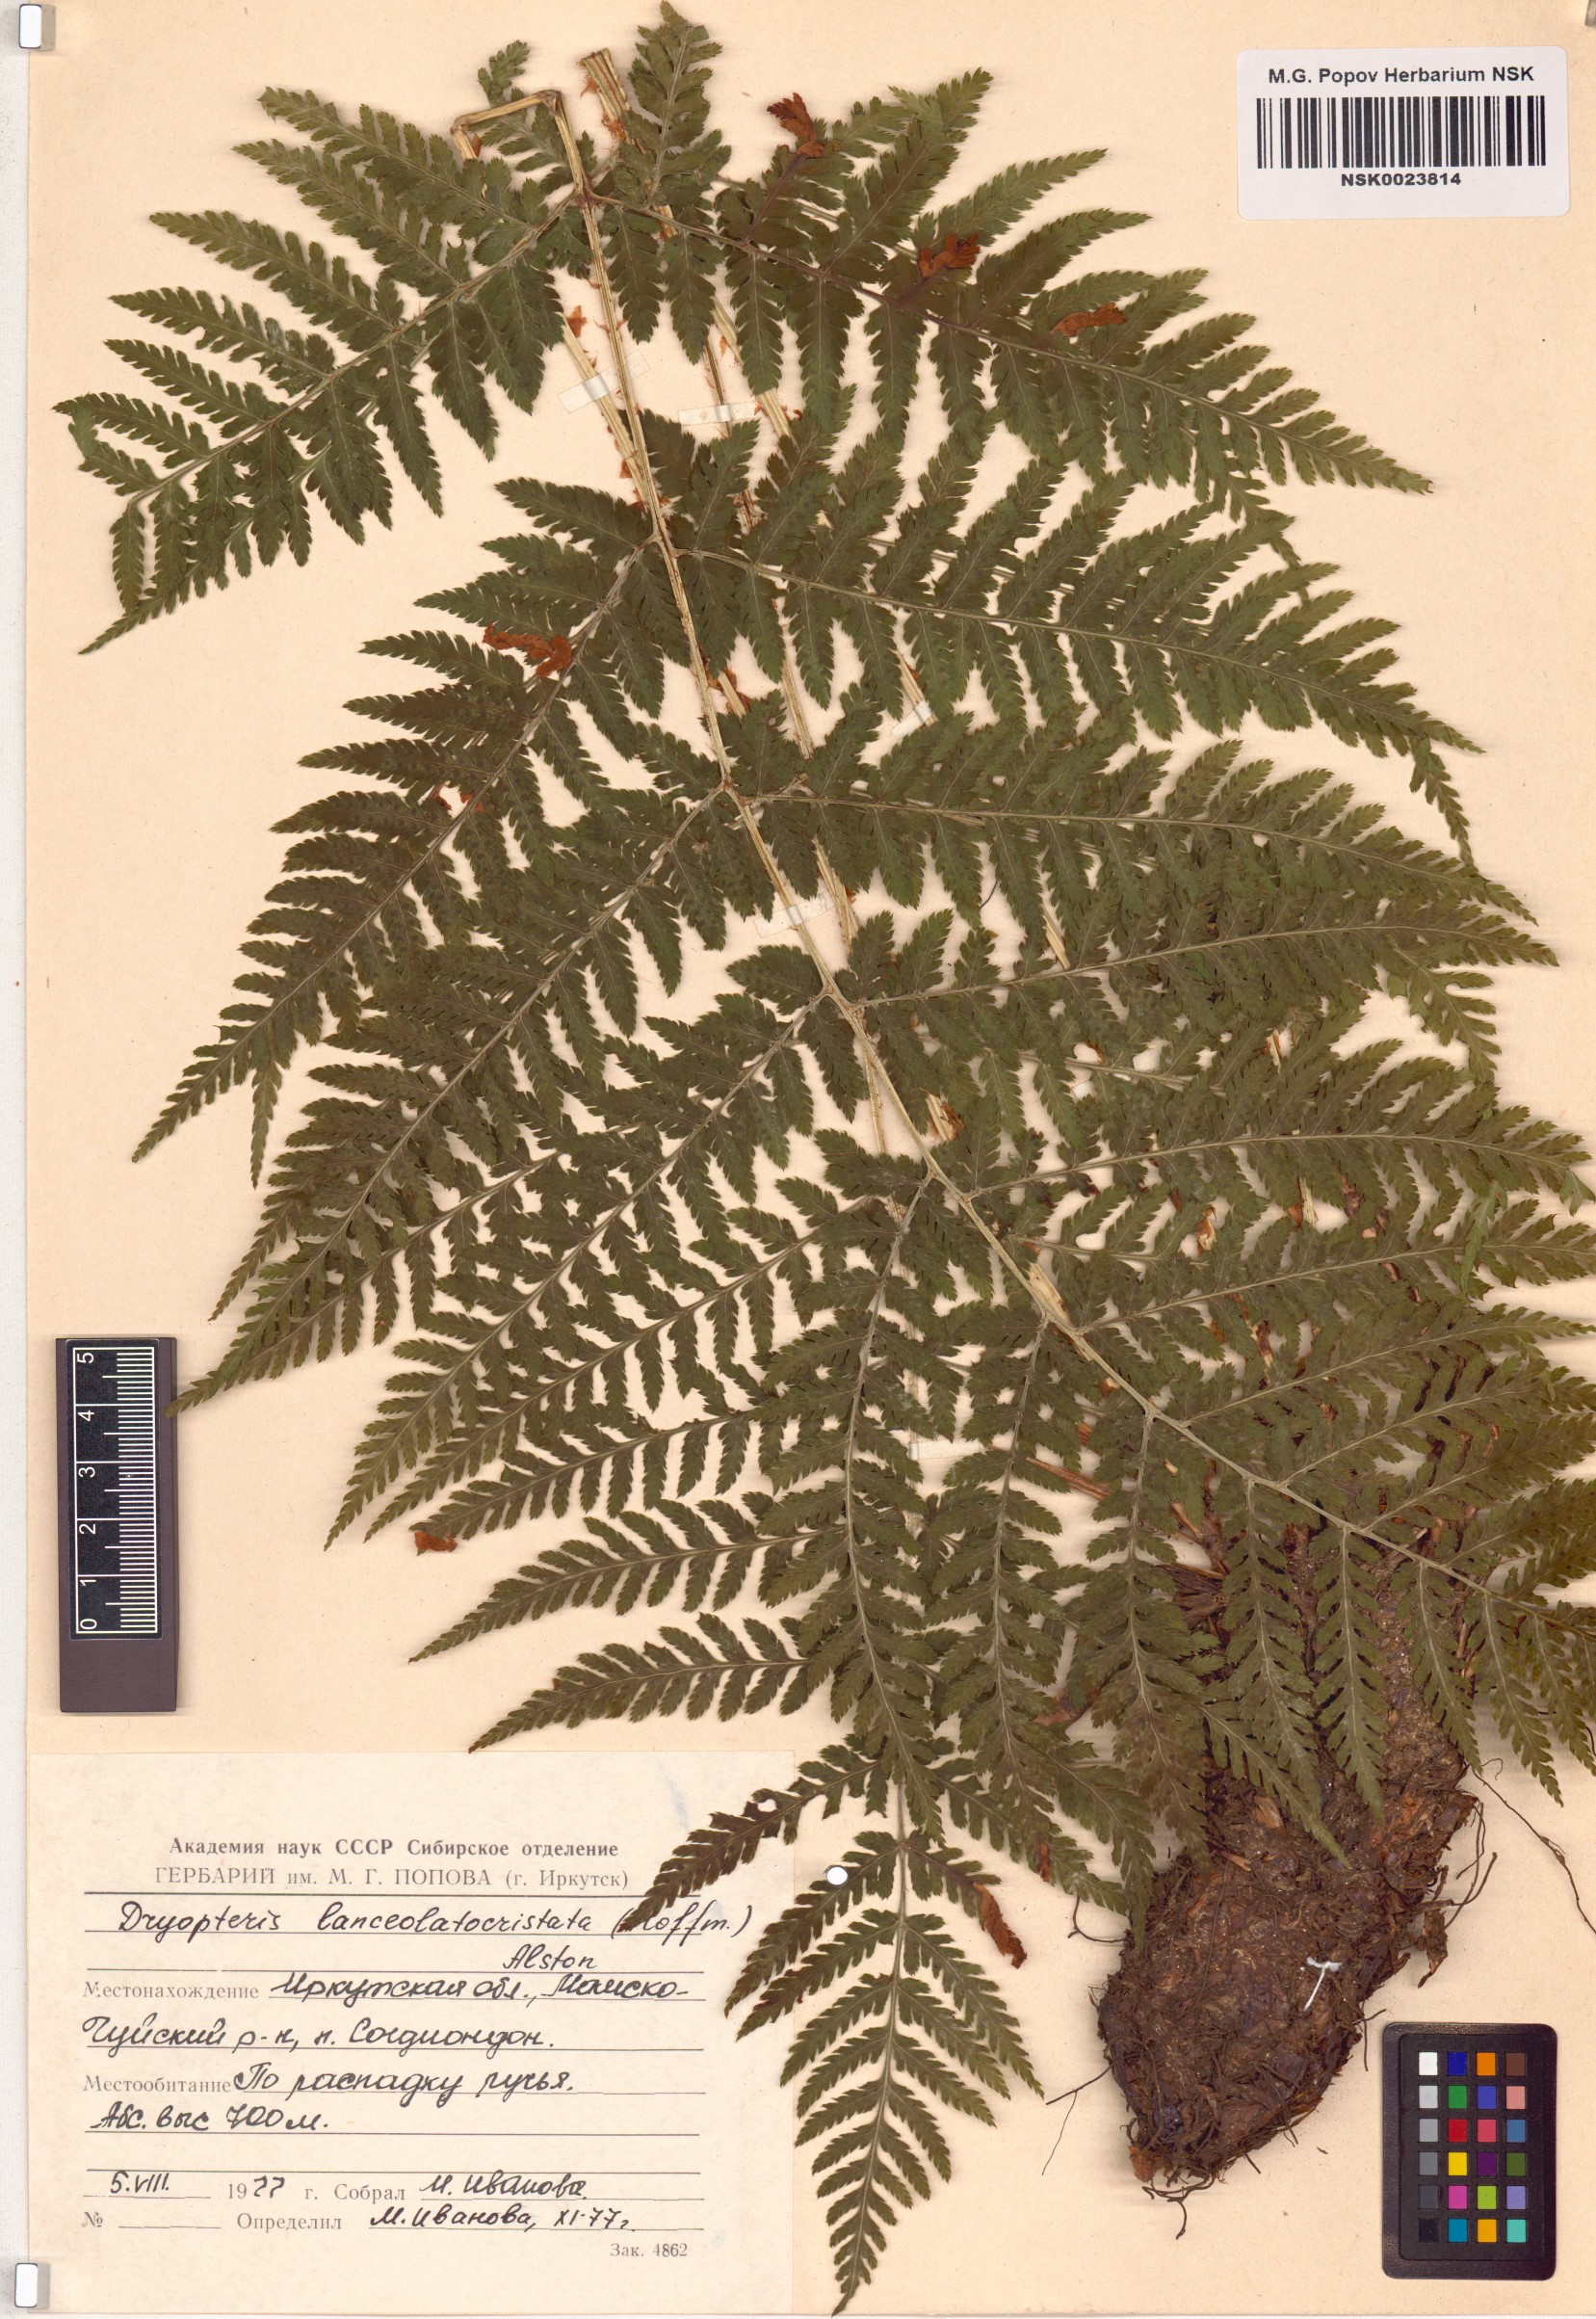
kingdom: Plantae
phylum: Tracheophyta
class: Polypodiopsida
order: Polypodiales
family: Dryopteridaceae
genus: Dryopteris
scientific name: Dryopteris carthusiana
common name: Narrow buckler-fern
